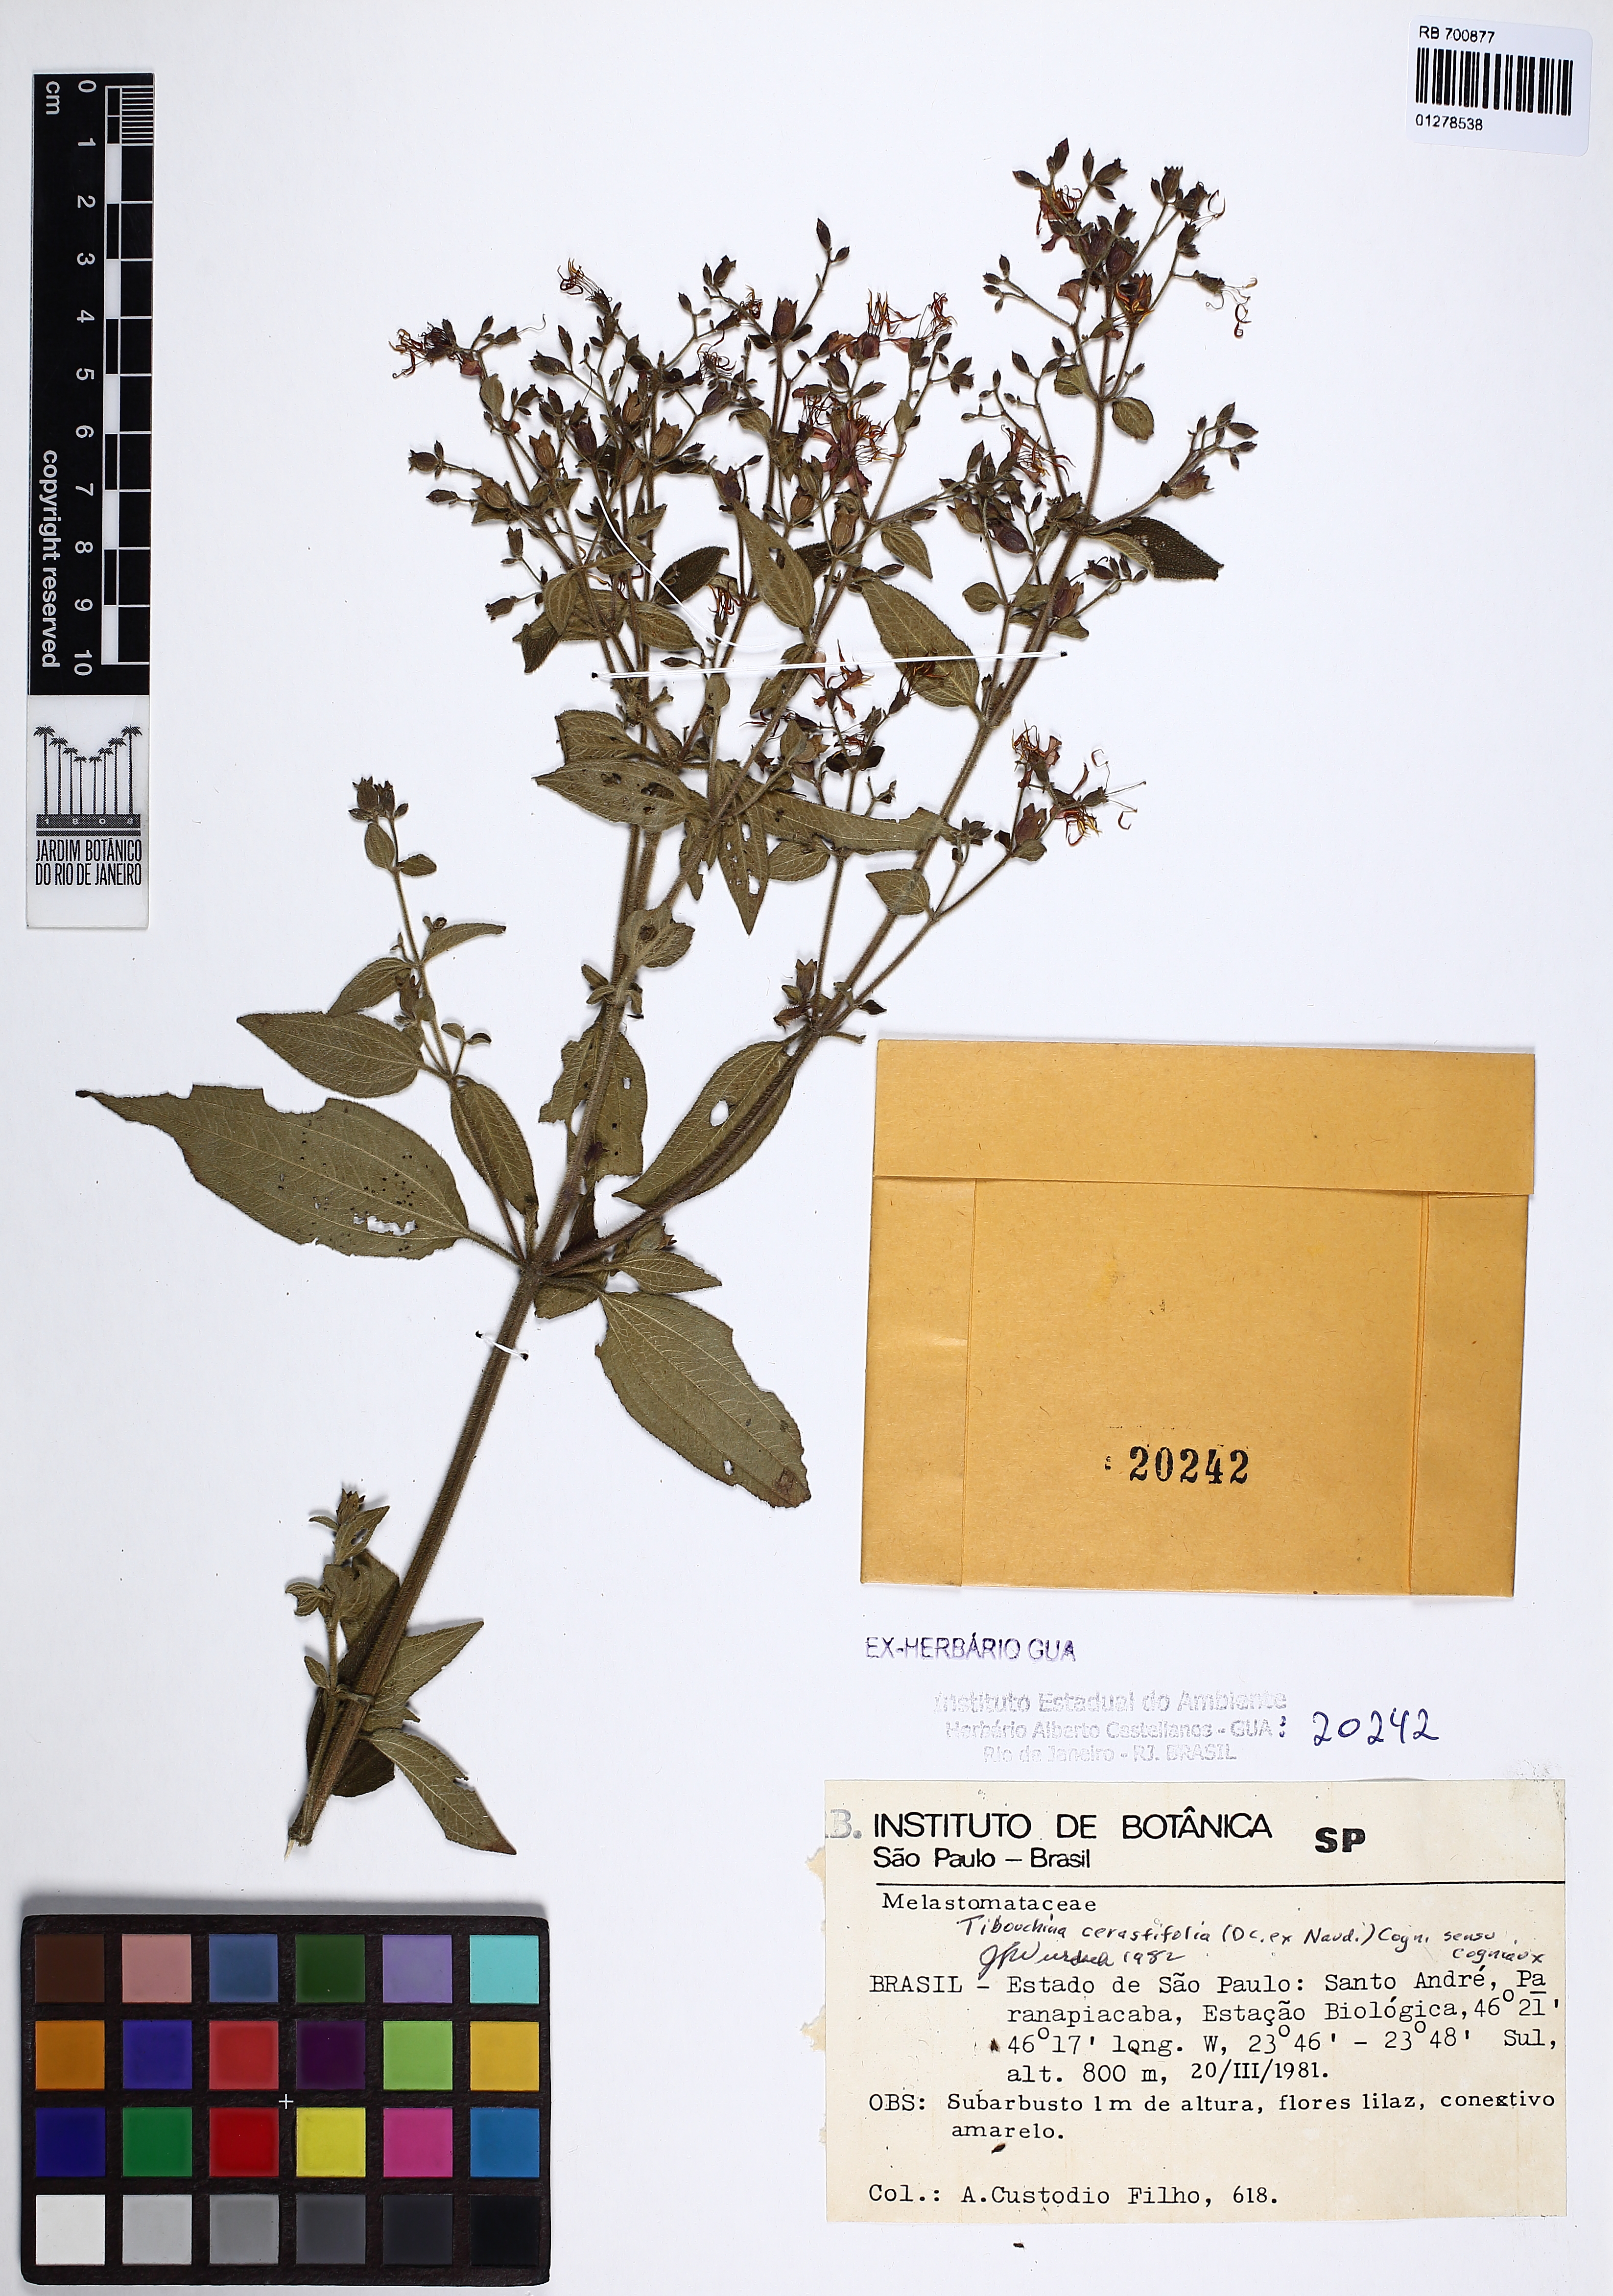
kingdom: Plantae
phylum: Tracheophyta
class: Magnoliopsida
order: Myrtales
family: Melastomataceae
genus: Chaetogastra
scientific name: Chaetogastra cerastifolia
